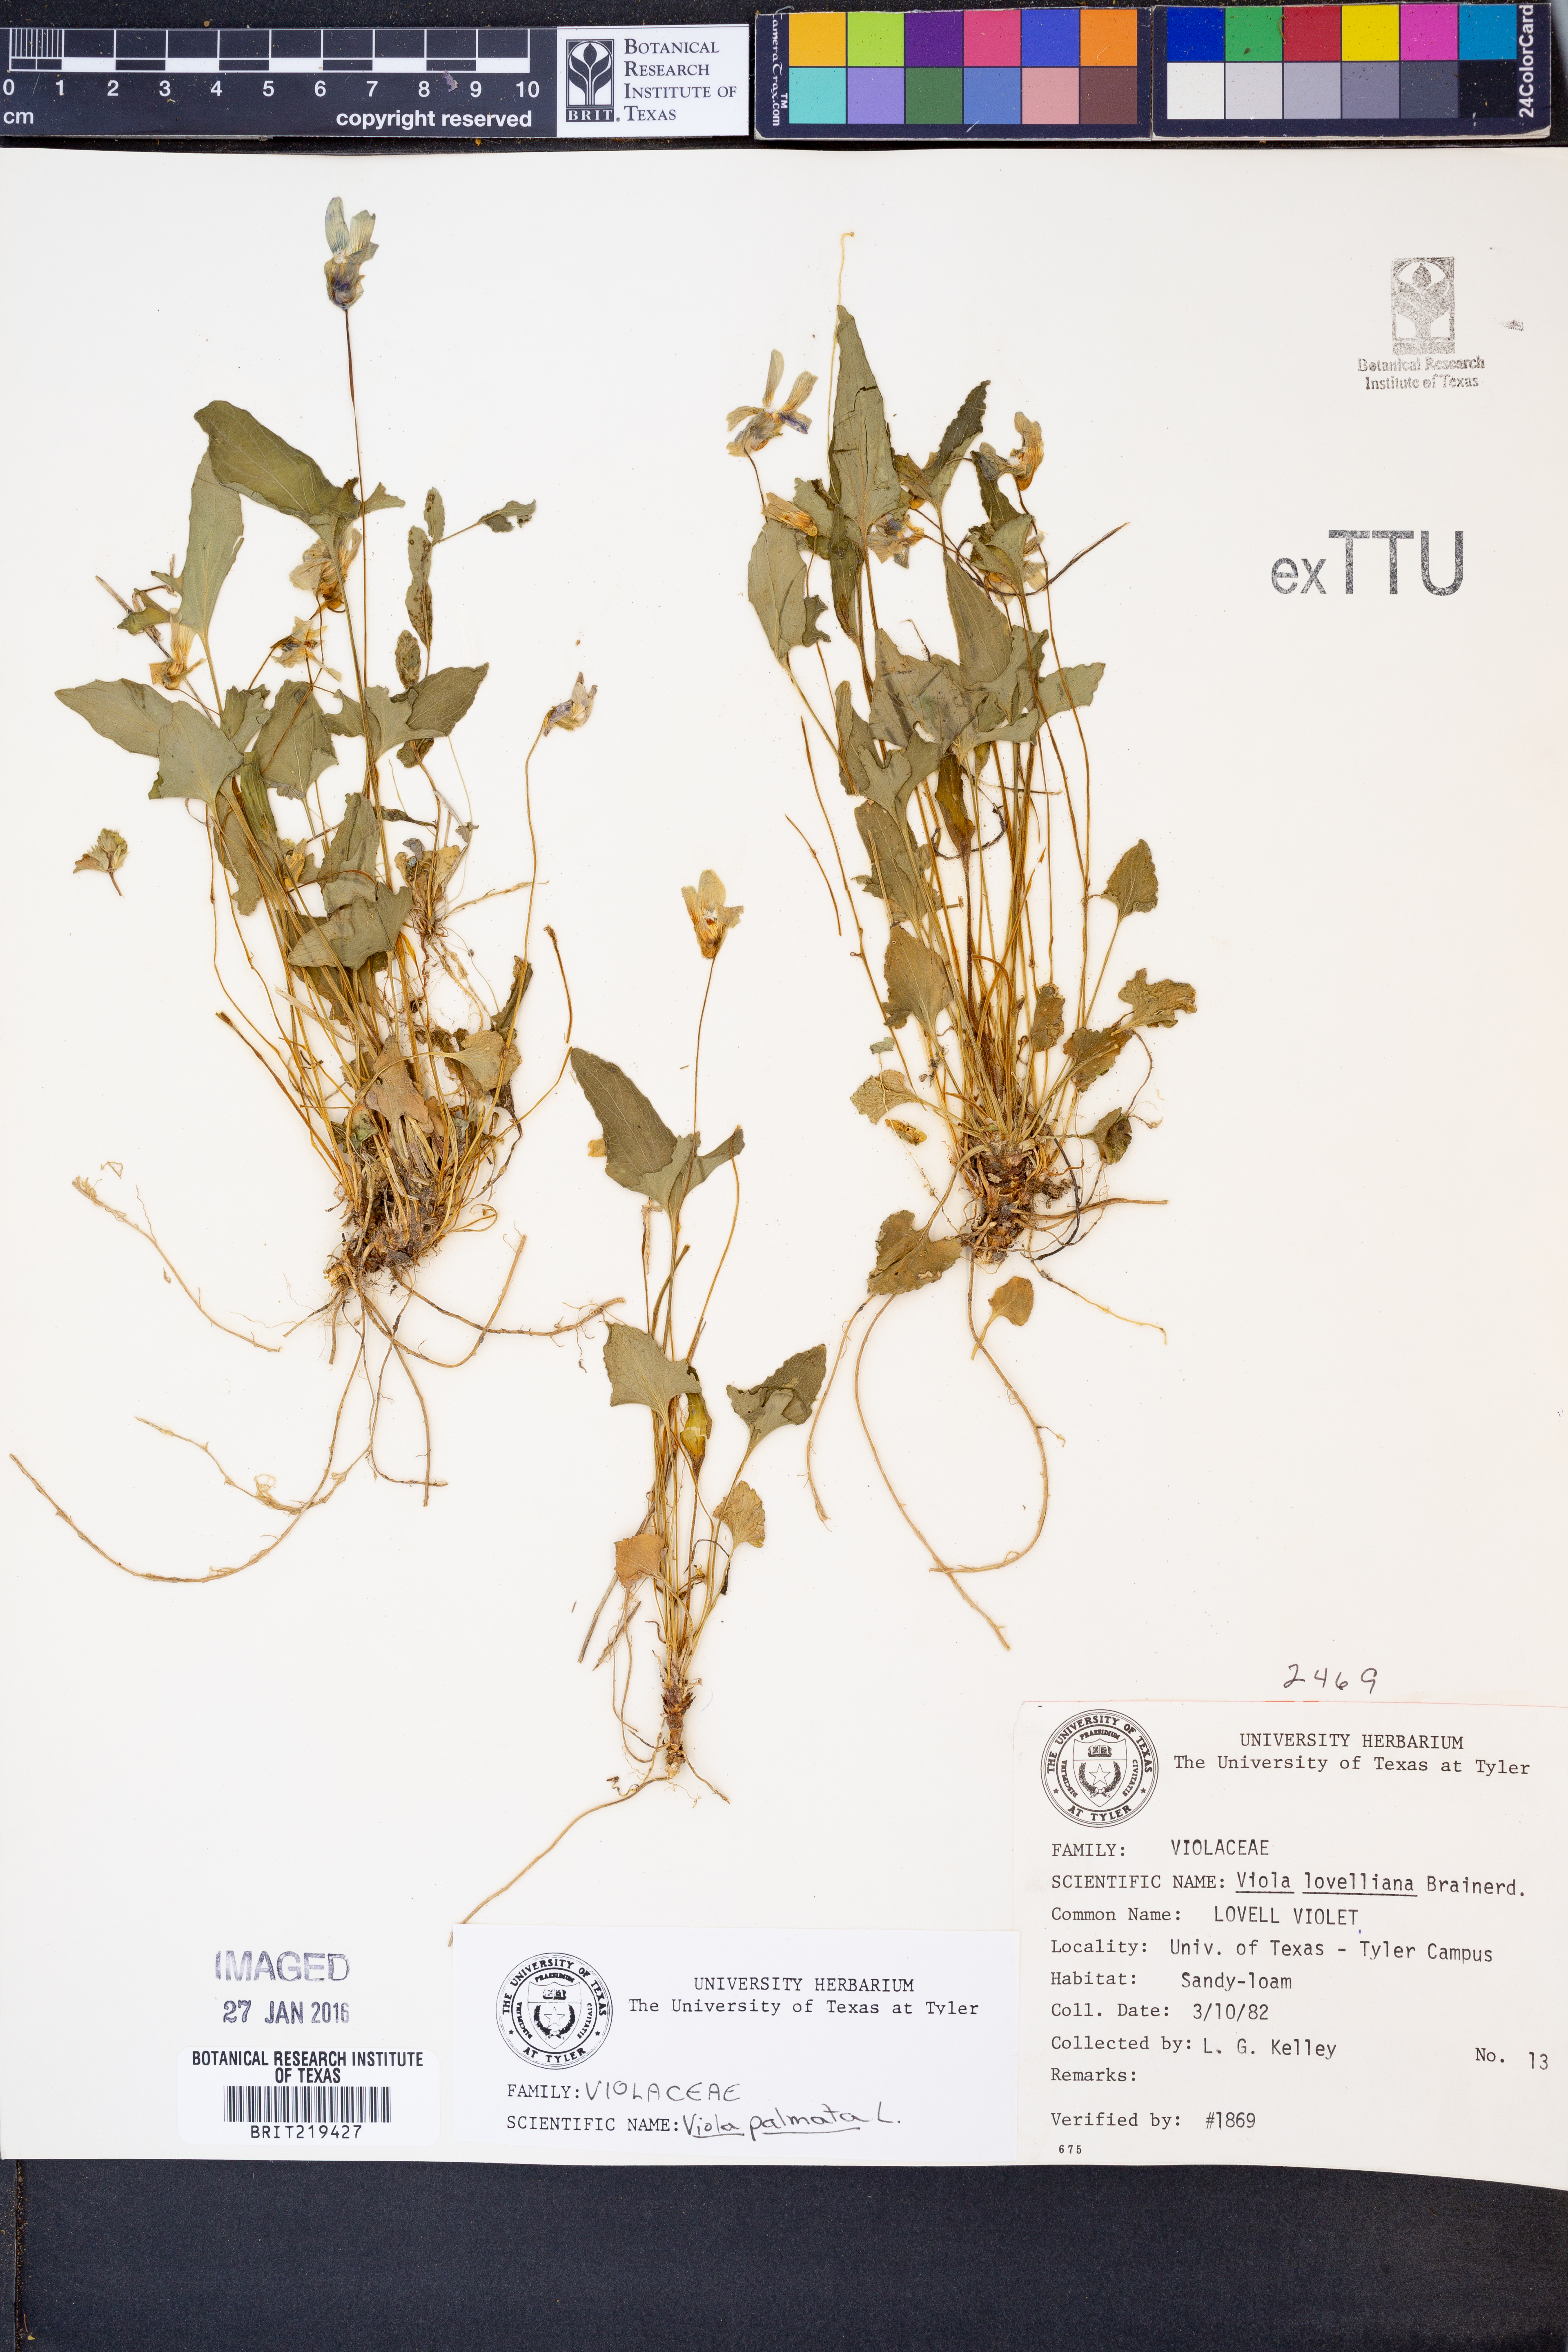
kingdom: Plantae
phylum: Tracheophyta
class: Magnoliopsida
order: Malpighiales
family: Violaceae
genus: Viola
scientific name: Viola palmata
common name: Early blue violet
